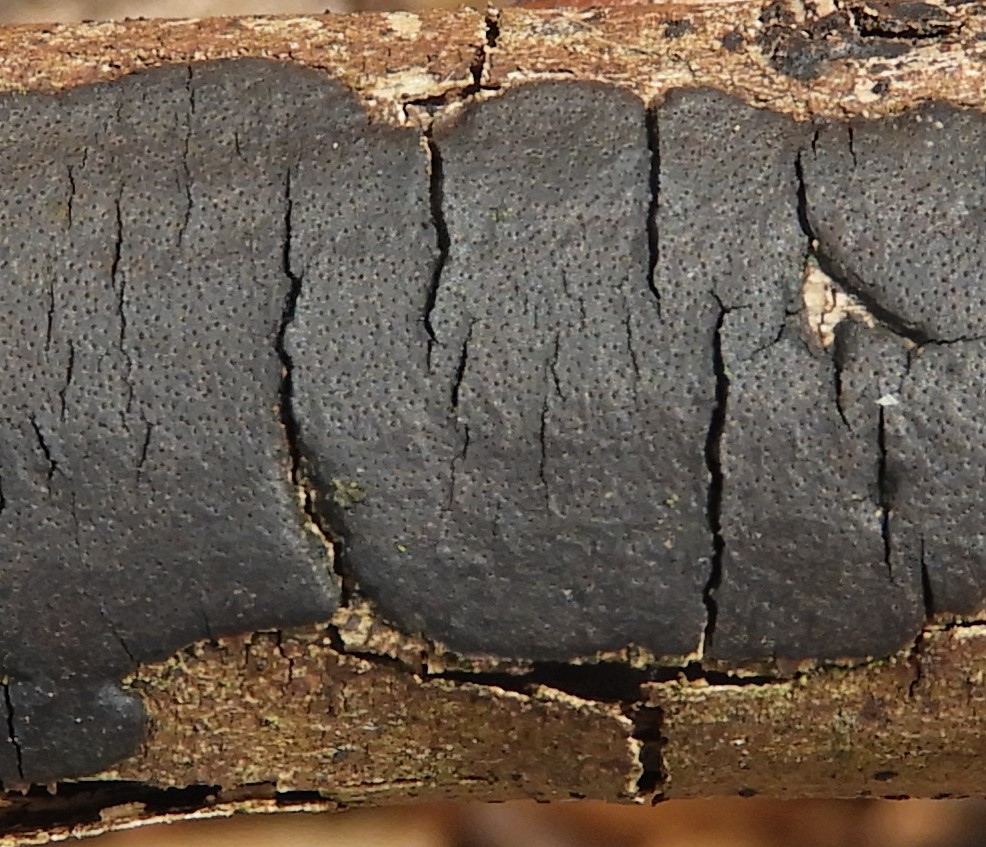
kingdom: Fungi
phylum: Ascomycota
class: Sordariomycetes
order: Xylariales
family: Diatrypaceae
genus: Diatrype
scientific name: Diatrype decorticata
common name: barksprænger-kulskorpe
